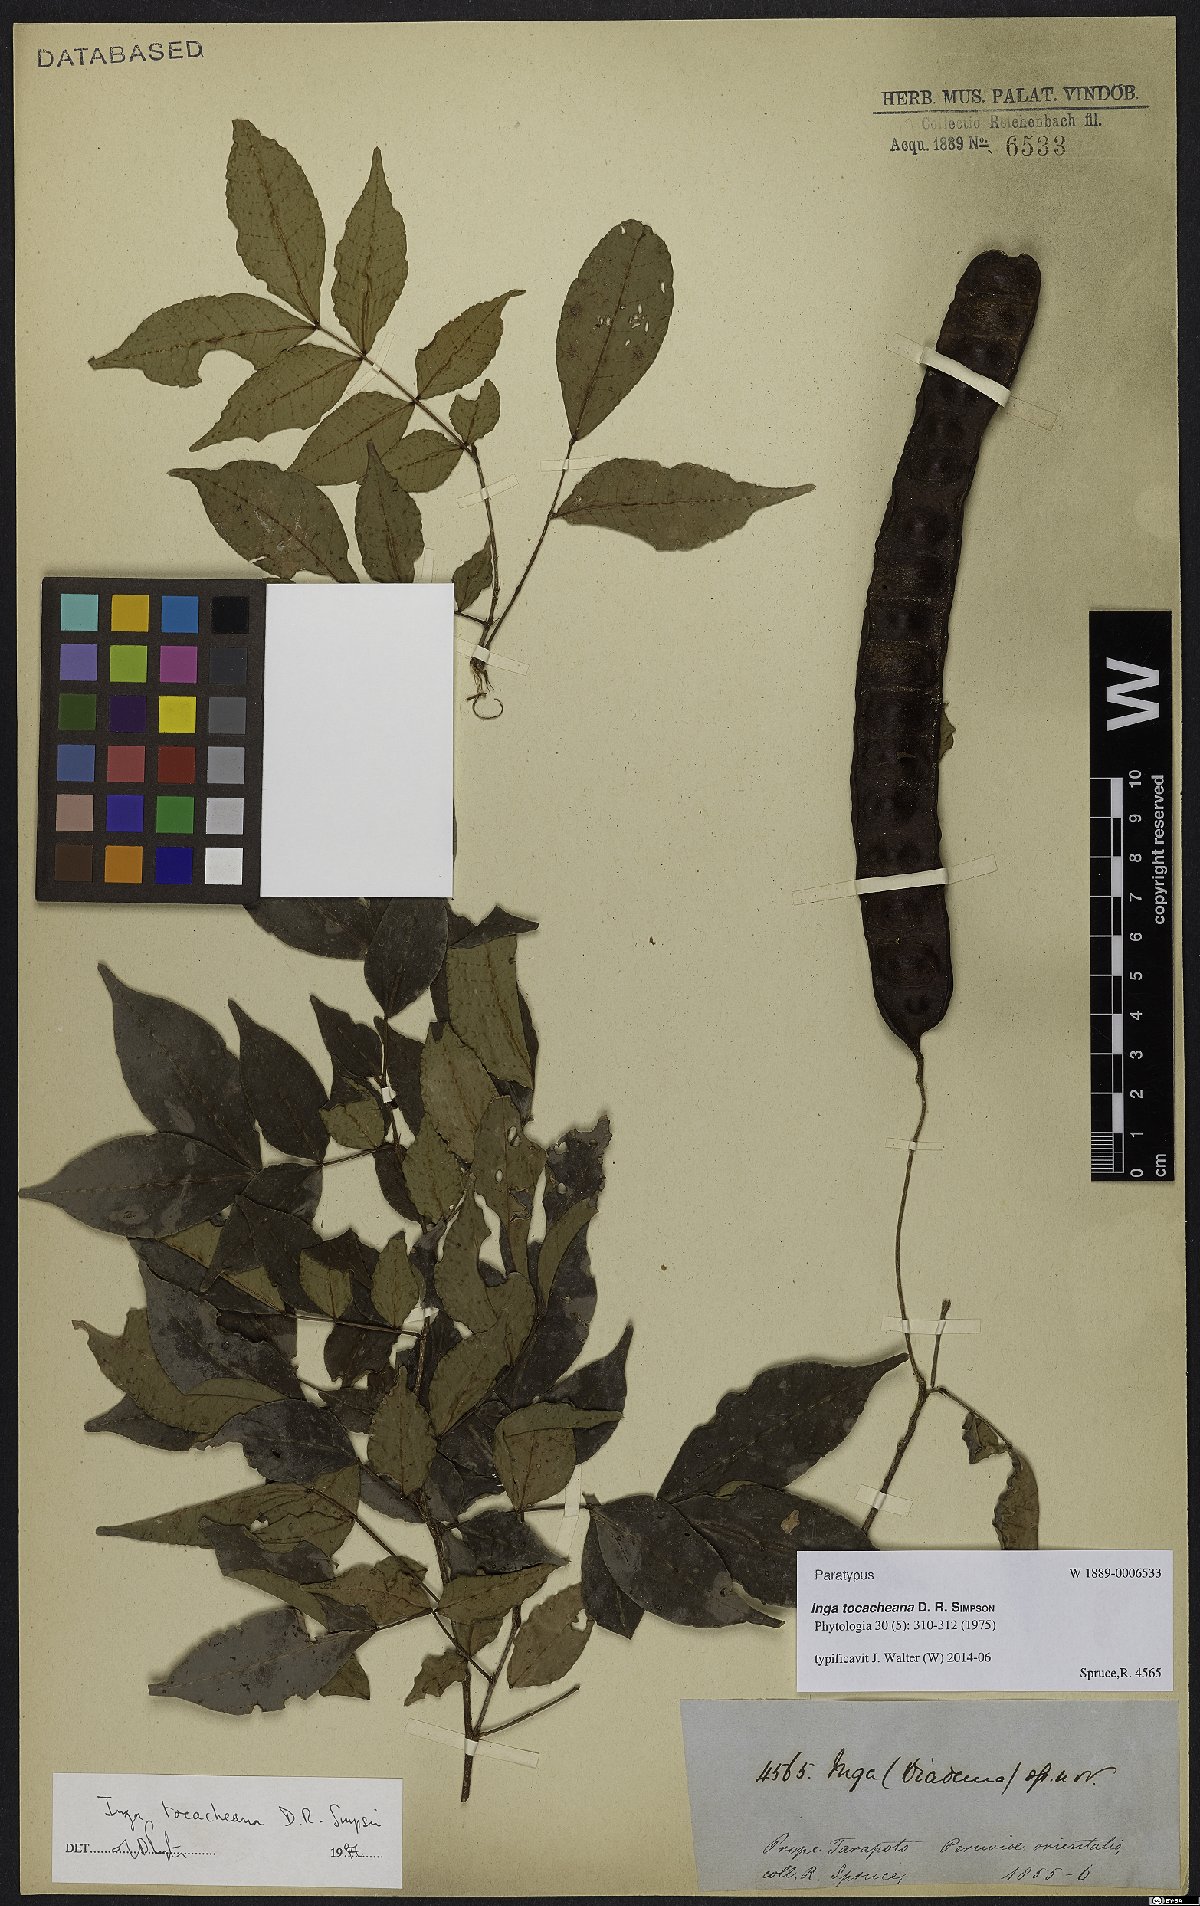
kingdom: Plantae
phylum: Tracheophyta
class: Magnoliopsida
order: Fabales
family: Fabaceae
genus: Inga
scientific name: Inga tocacheana
